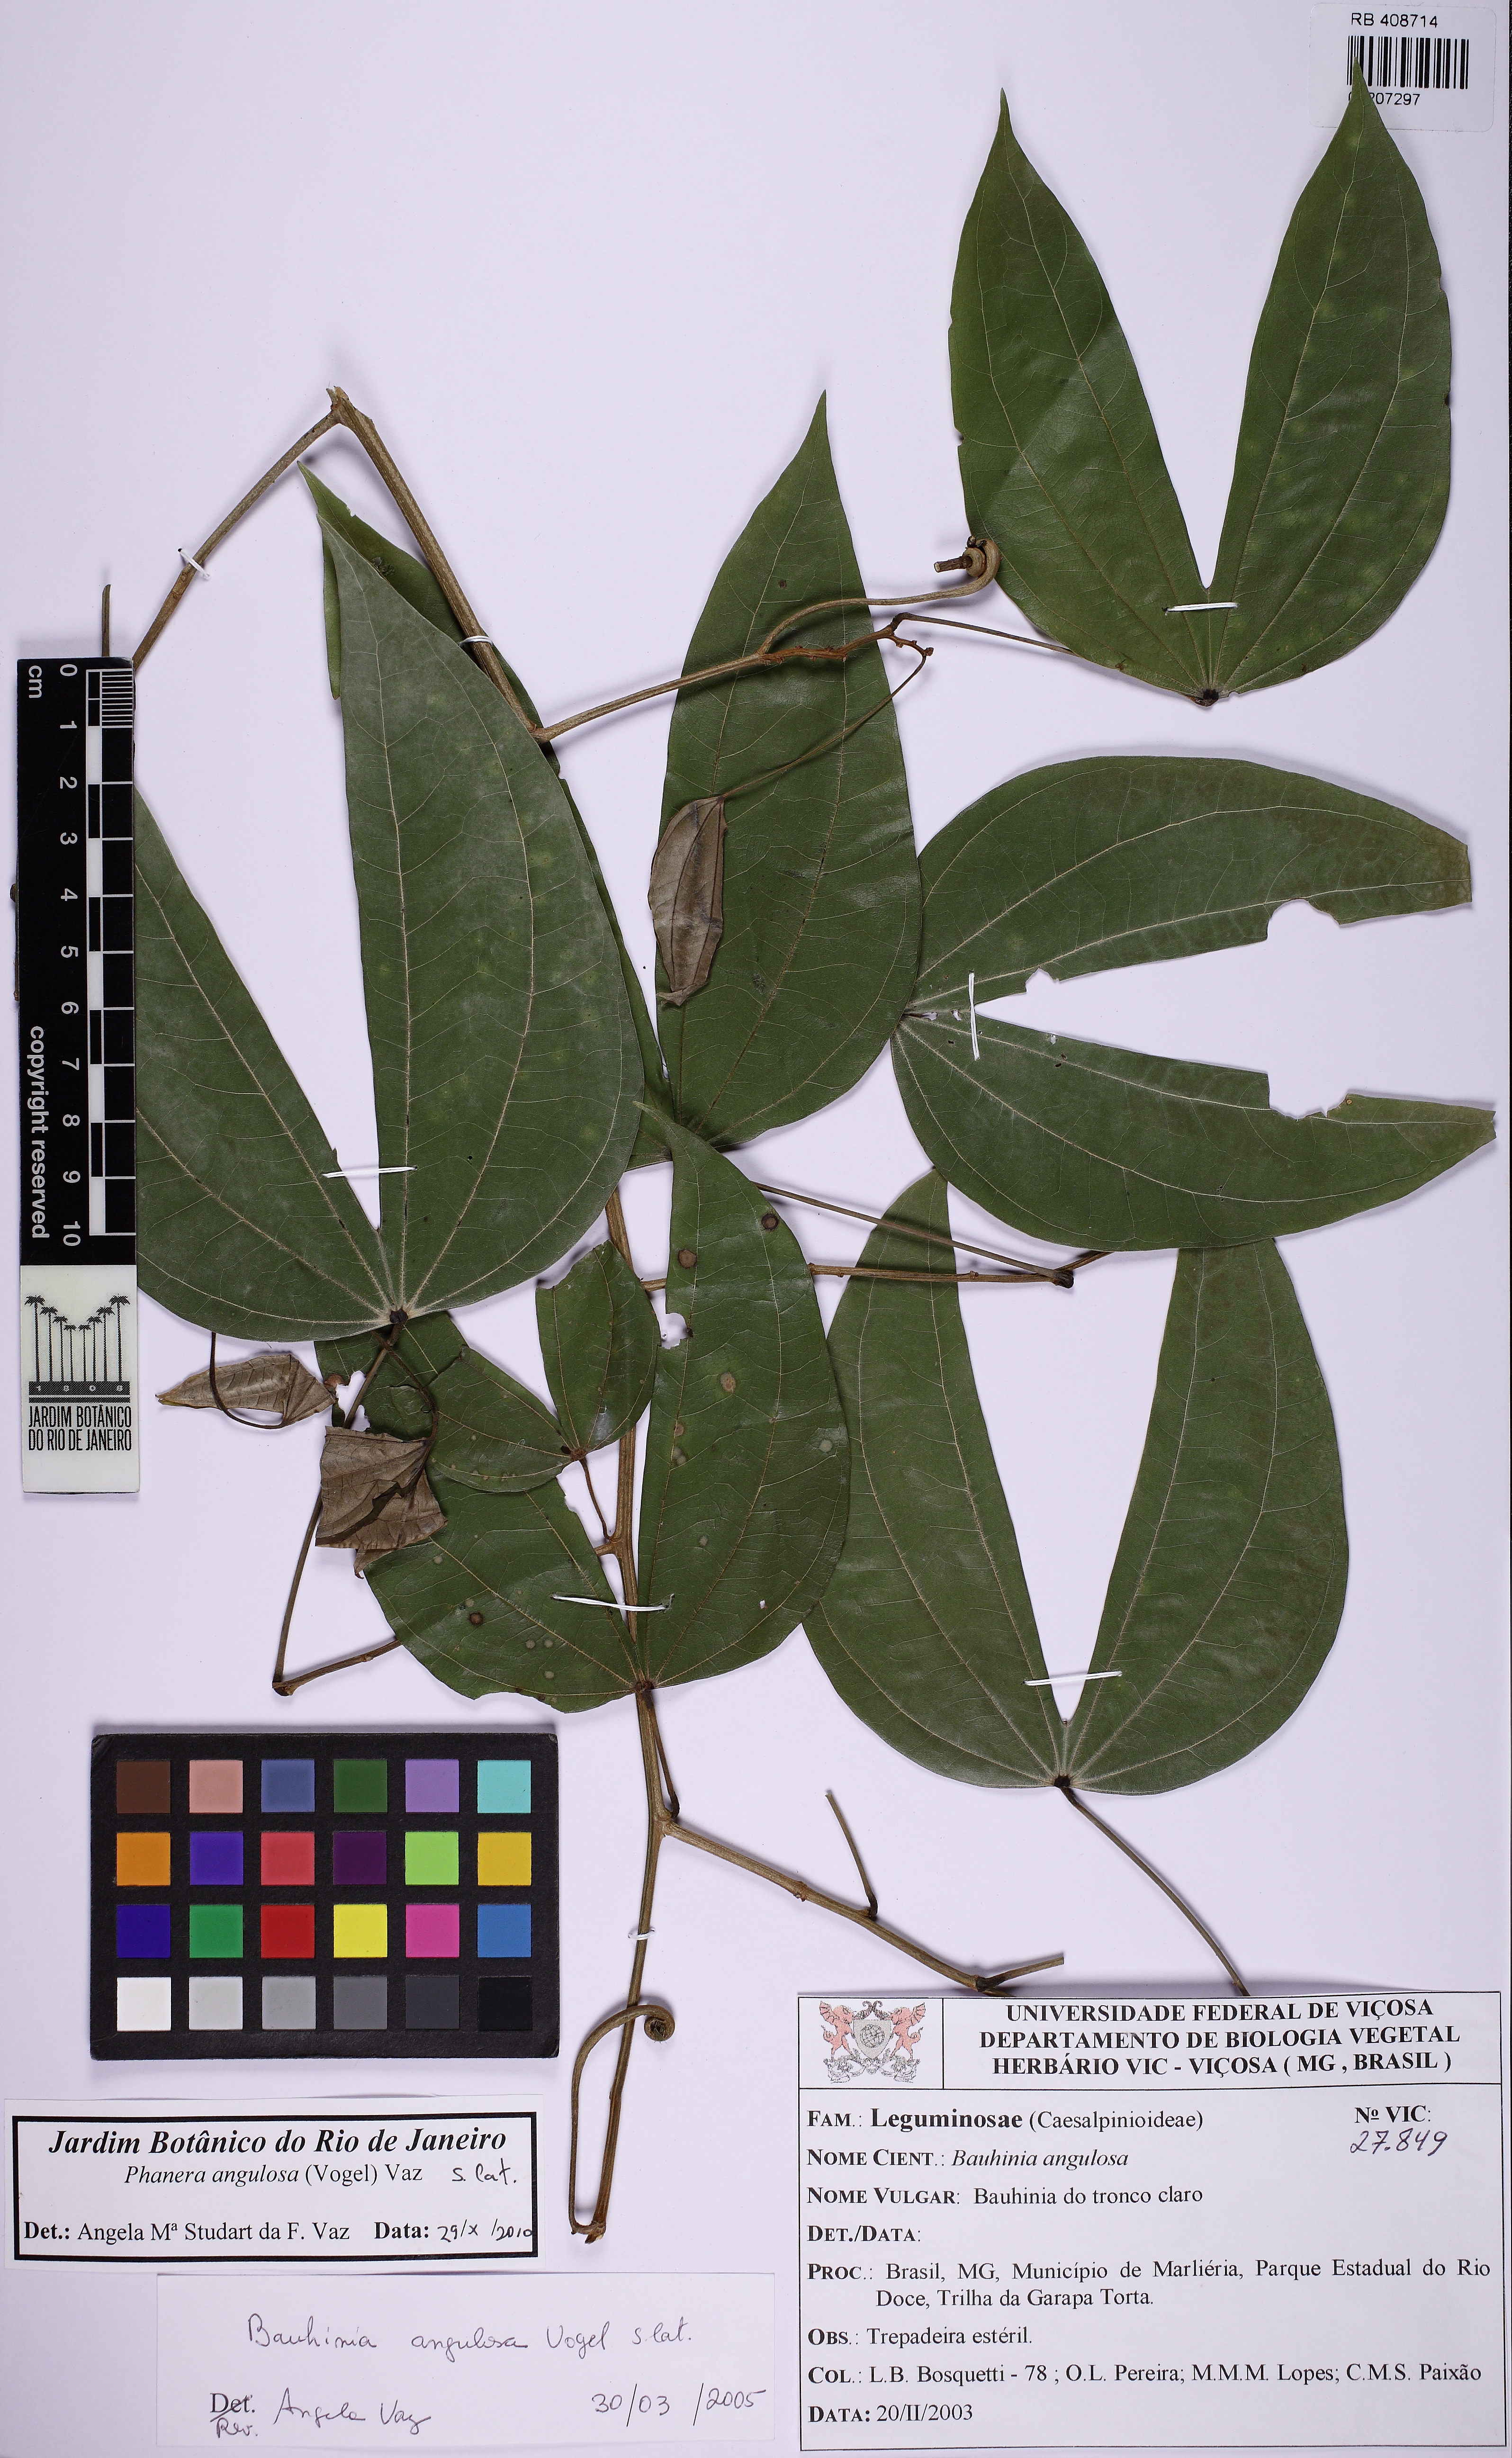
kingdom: Plantae
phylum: Tracheophyta
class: Magnoliopsida
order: Fabales
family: Fabaceae
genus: Schnella
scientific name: Schnella angulosa
